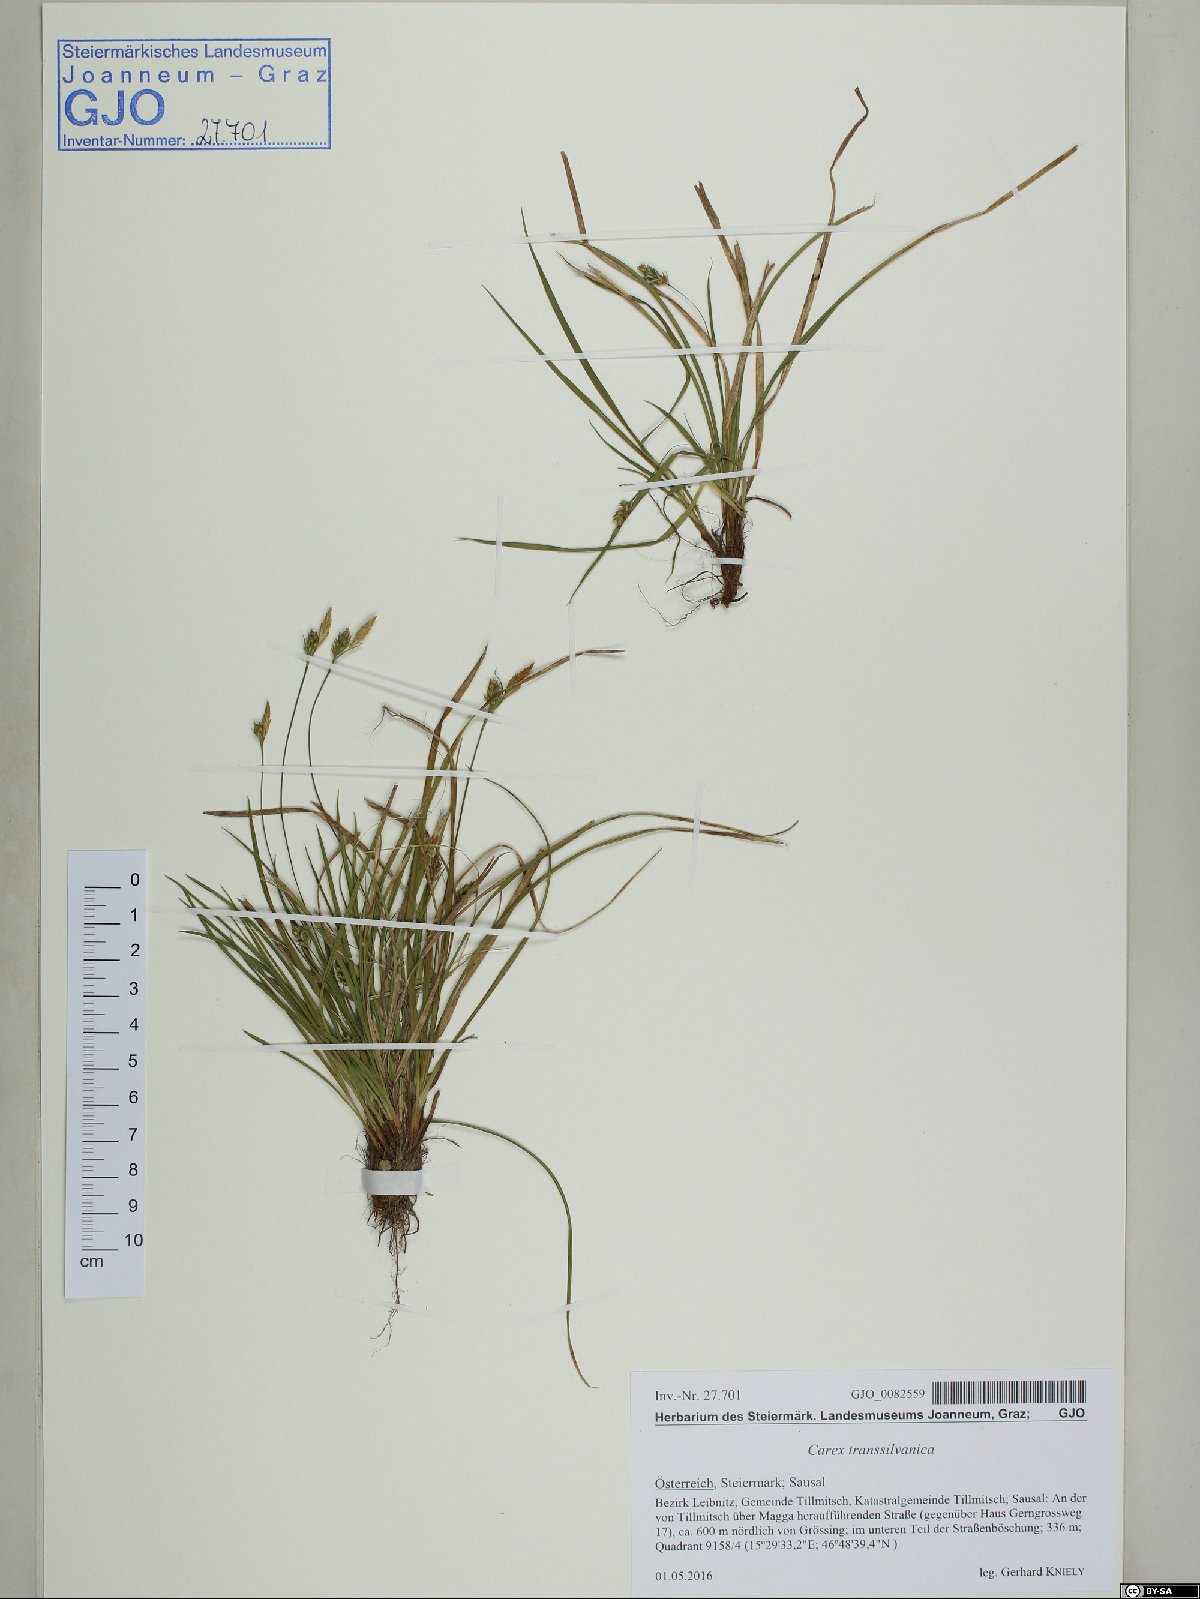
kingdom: Plantae
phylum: Tracheophyta
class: Liliopsida
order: Poales
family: Cyperaceae
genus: Carex
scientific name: Carex depressa
